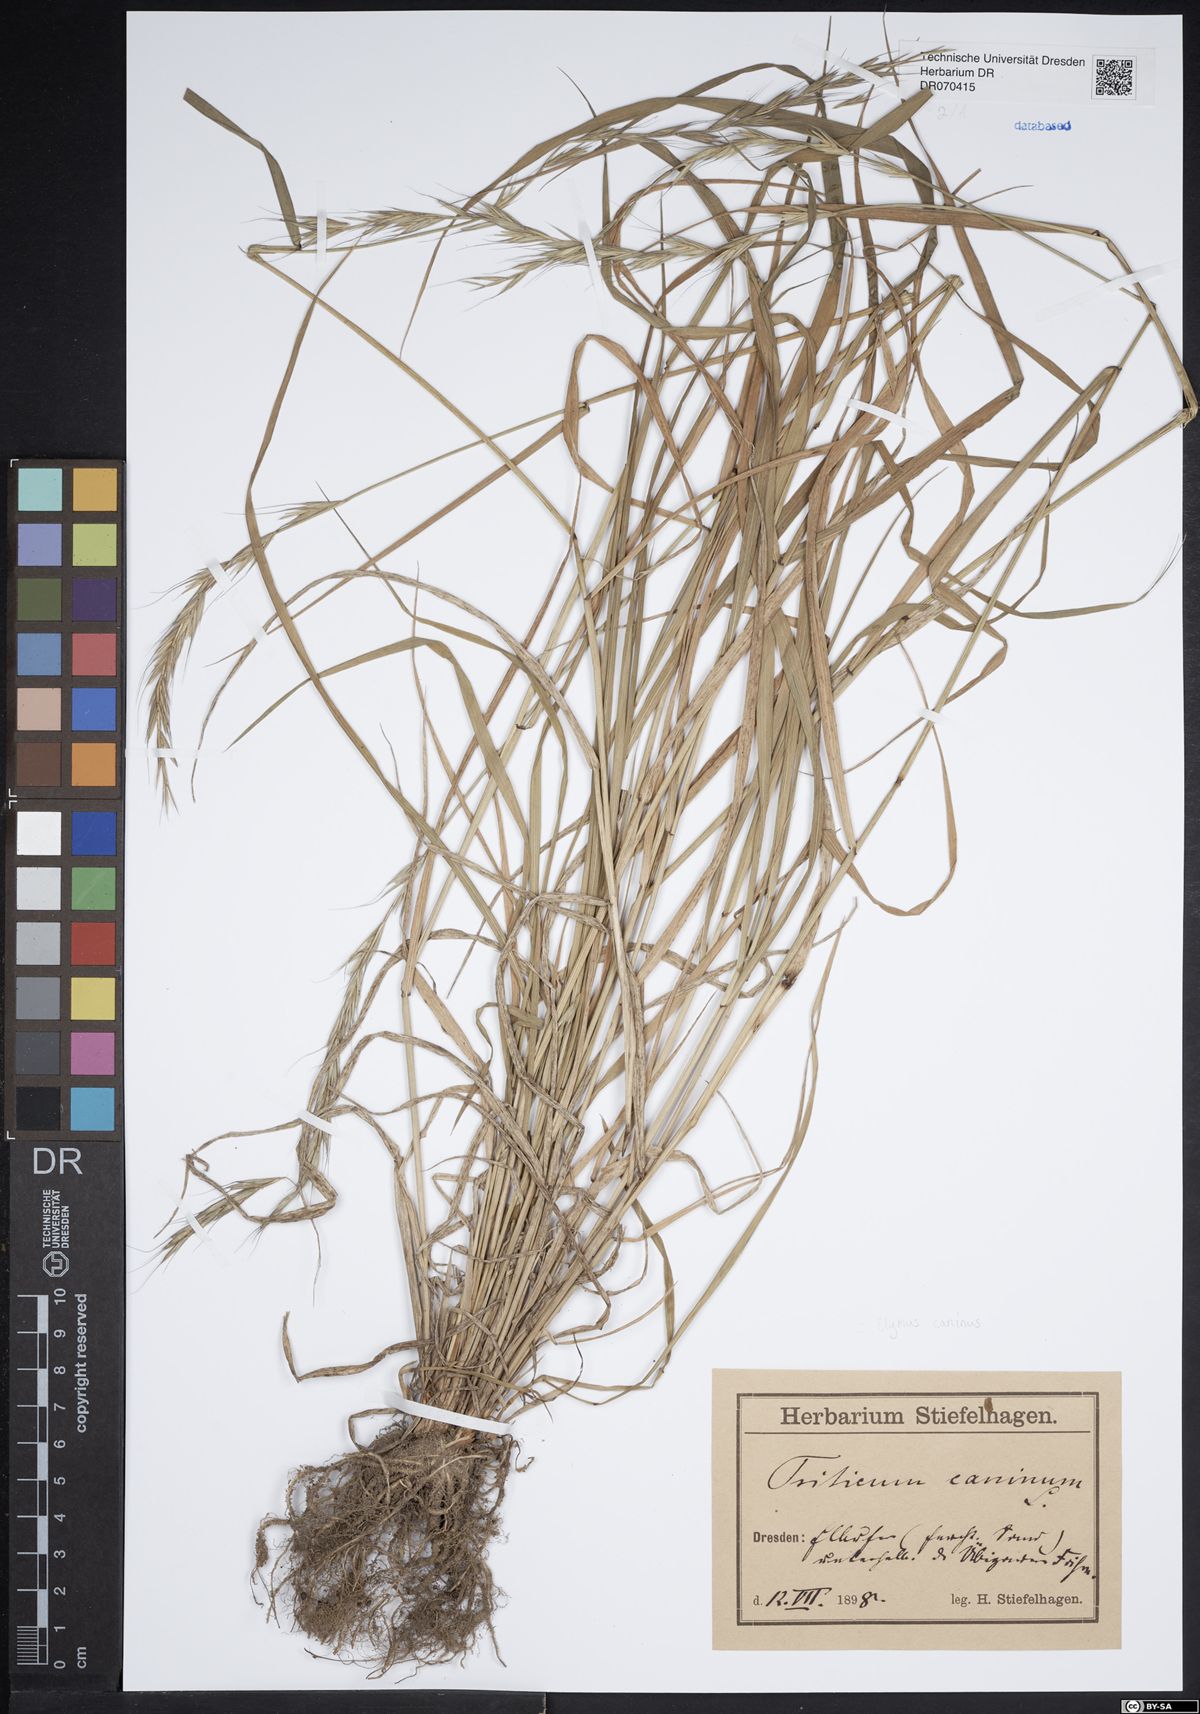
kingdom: Plantae
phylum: Tracheophyta
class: Liliopsida
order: Poales
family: Poaceae
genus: Elymus
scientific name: Elymus caninus
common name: Bearded couch
